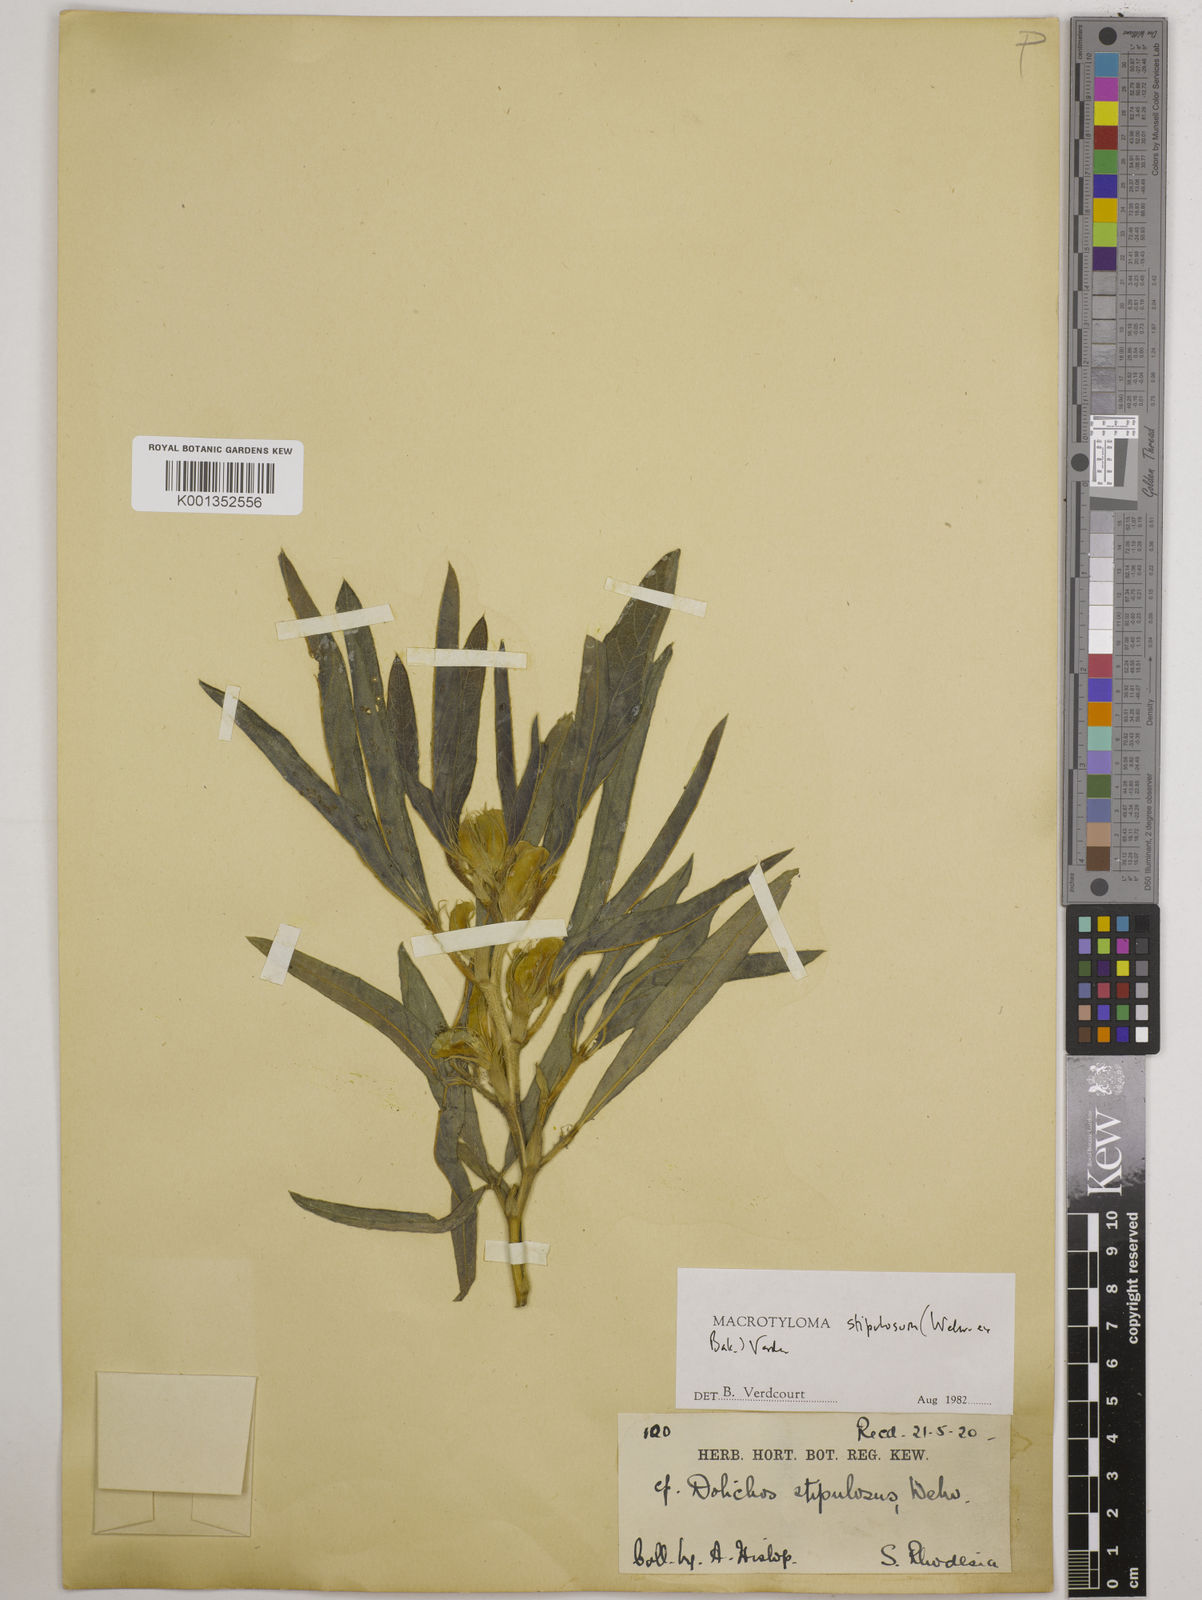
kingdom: Plantae
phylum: Tracheophyta
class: Magnoliopsida
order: Fabales
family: Fabaceae
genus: Macrotyloma
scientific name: Macrotyloma stipulosum
